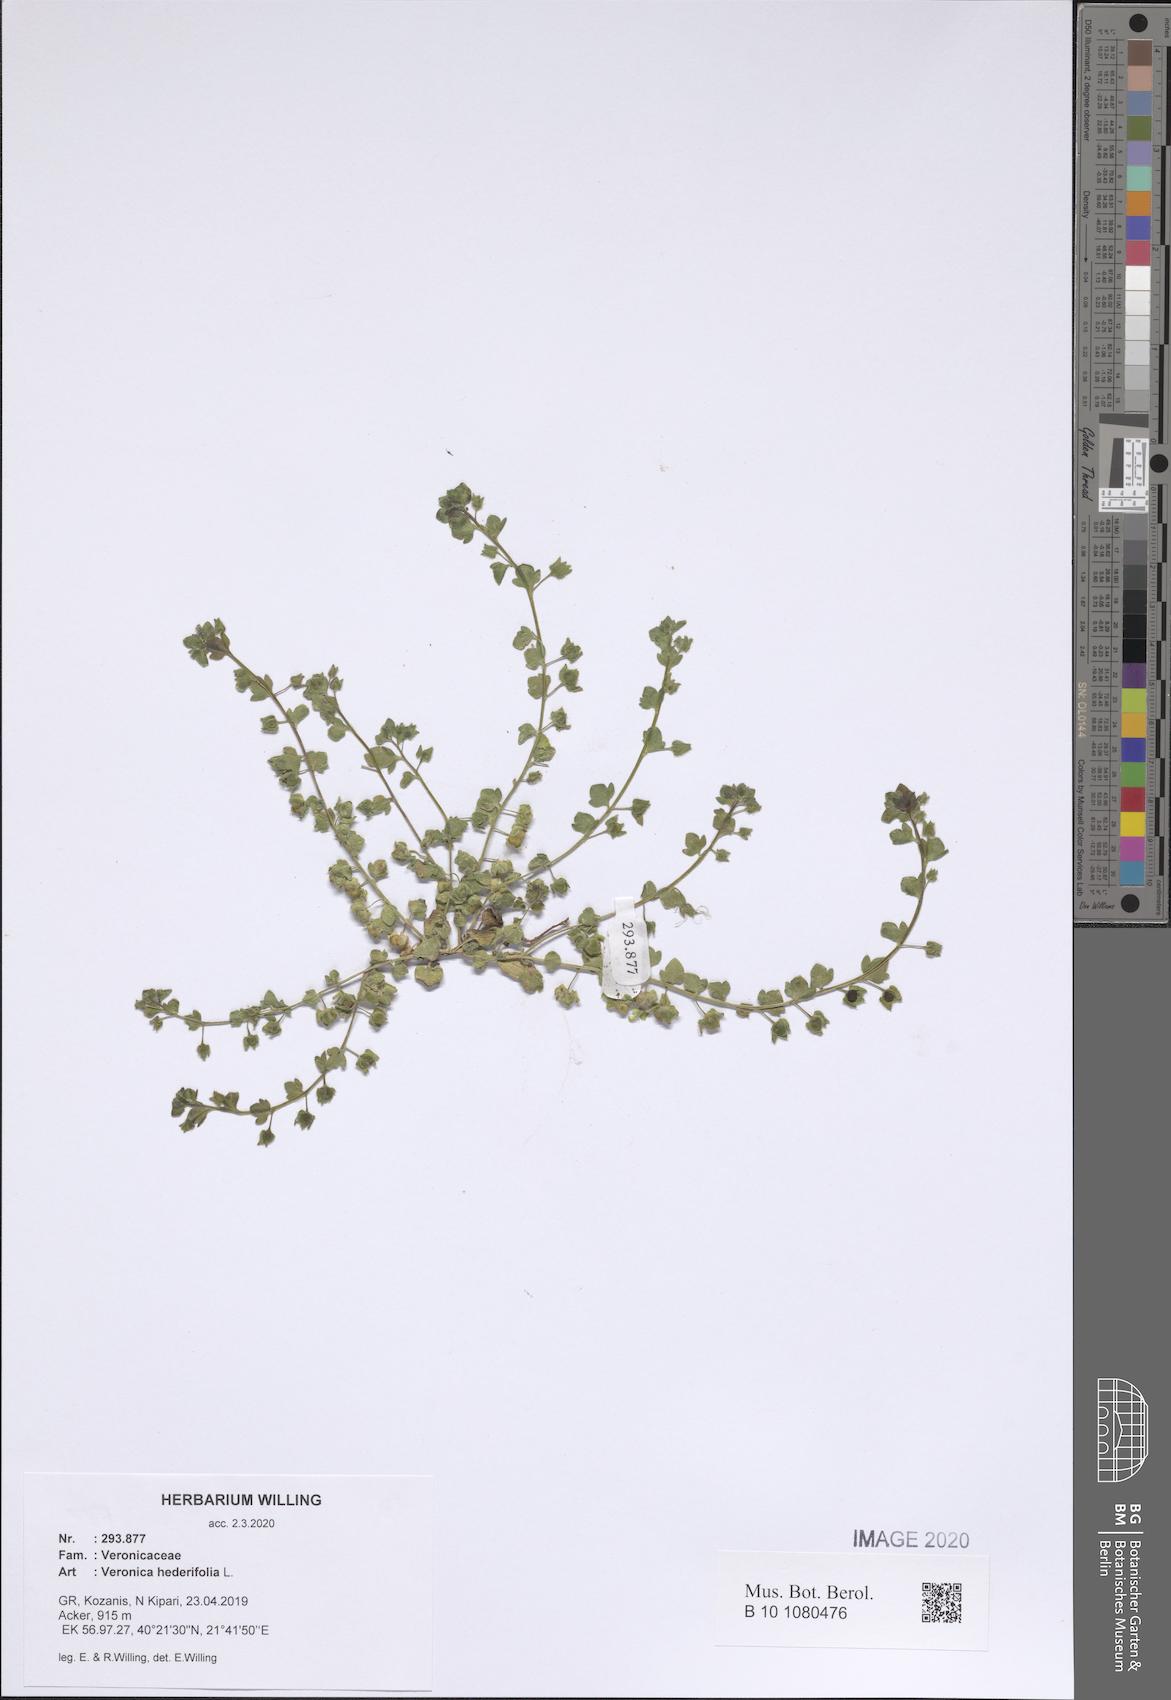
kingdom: Plantae
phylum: Tracheophyta
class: Magnoliopsida
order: Lamiales
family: Plantaginaceae
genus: Veronica
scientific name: Veronica hederifolia
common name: Ivy-leaved speedwell
